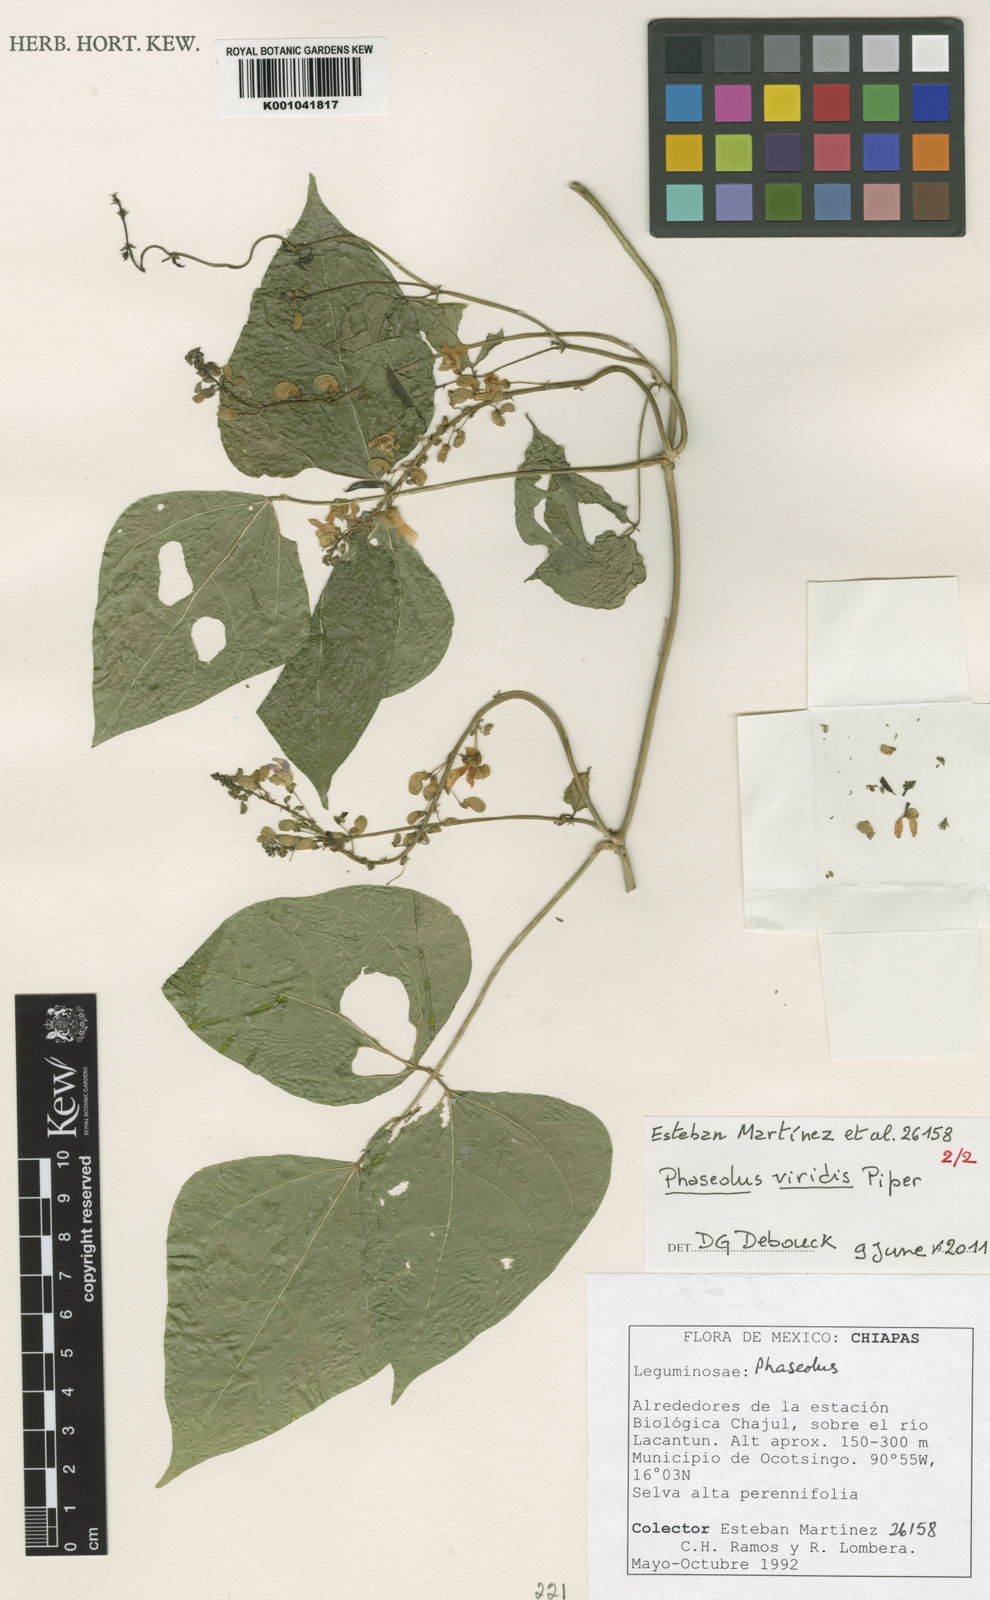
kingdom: Plantae
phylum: Tracheophyta
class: Magnoliopsida
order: Fabales
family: Fabaceae
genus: Phaseolus
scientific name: Phaseolus viridis
